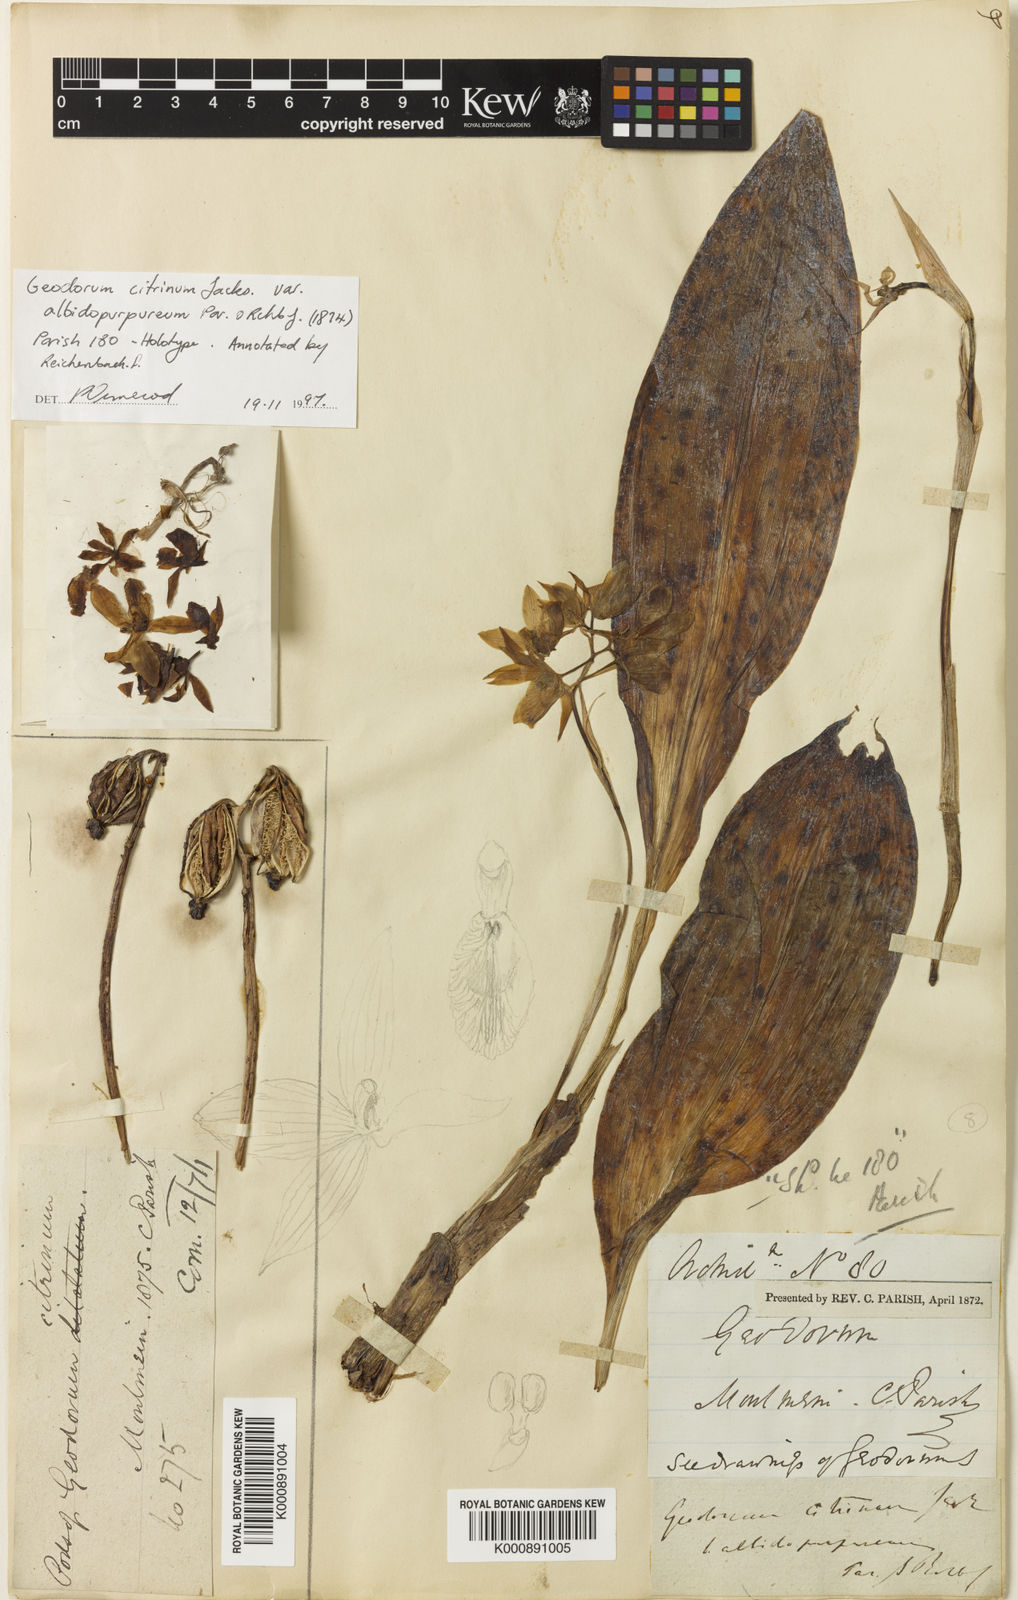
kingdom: Plantae
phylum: Tracheophyta
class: Liliopsida
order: Asparagales
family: Orchidaceae
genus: Geodorum
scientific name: Geodorum
